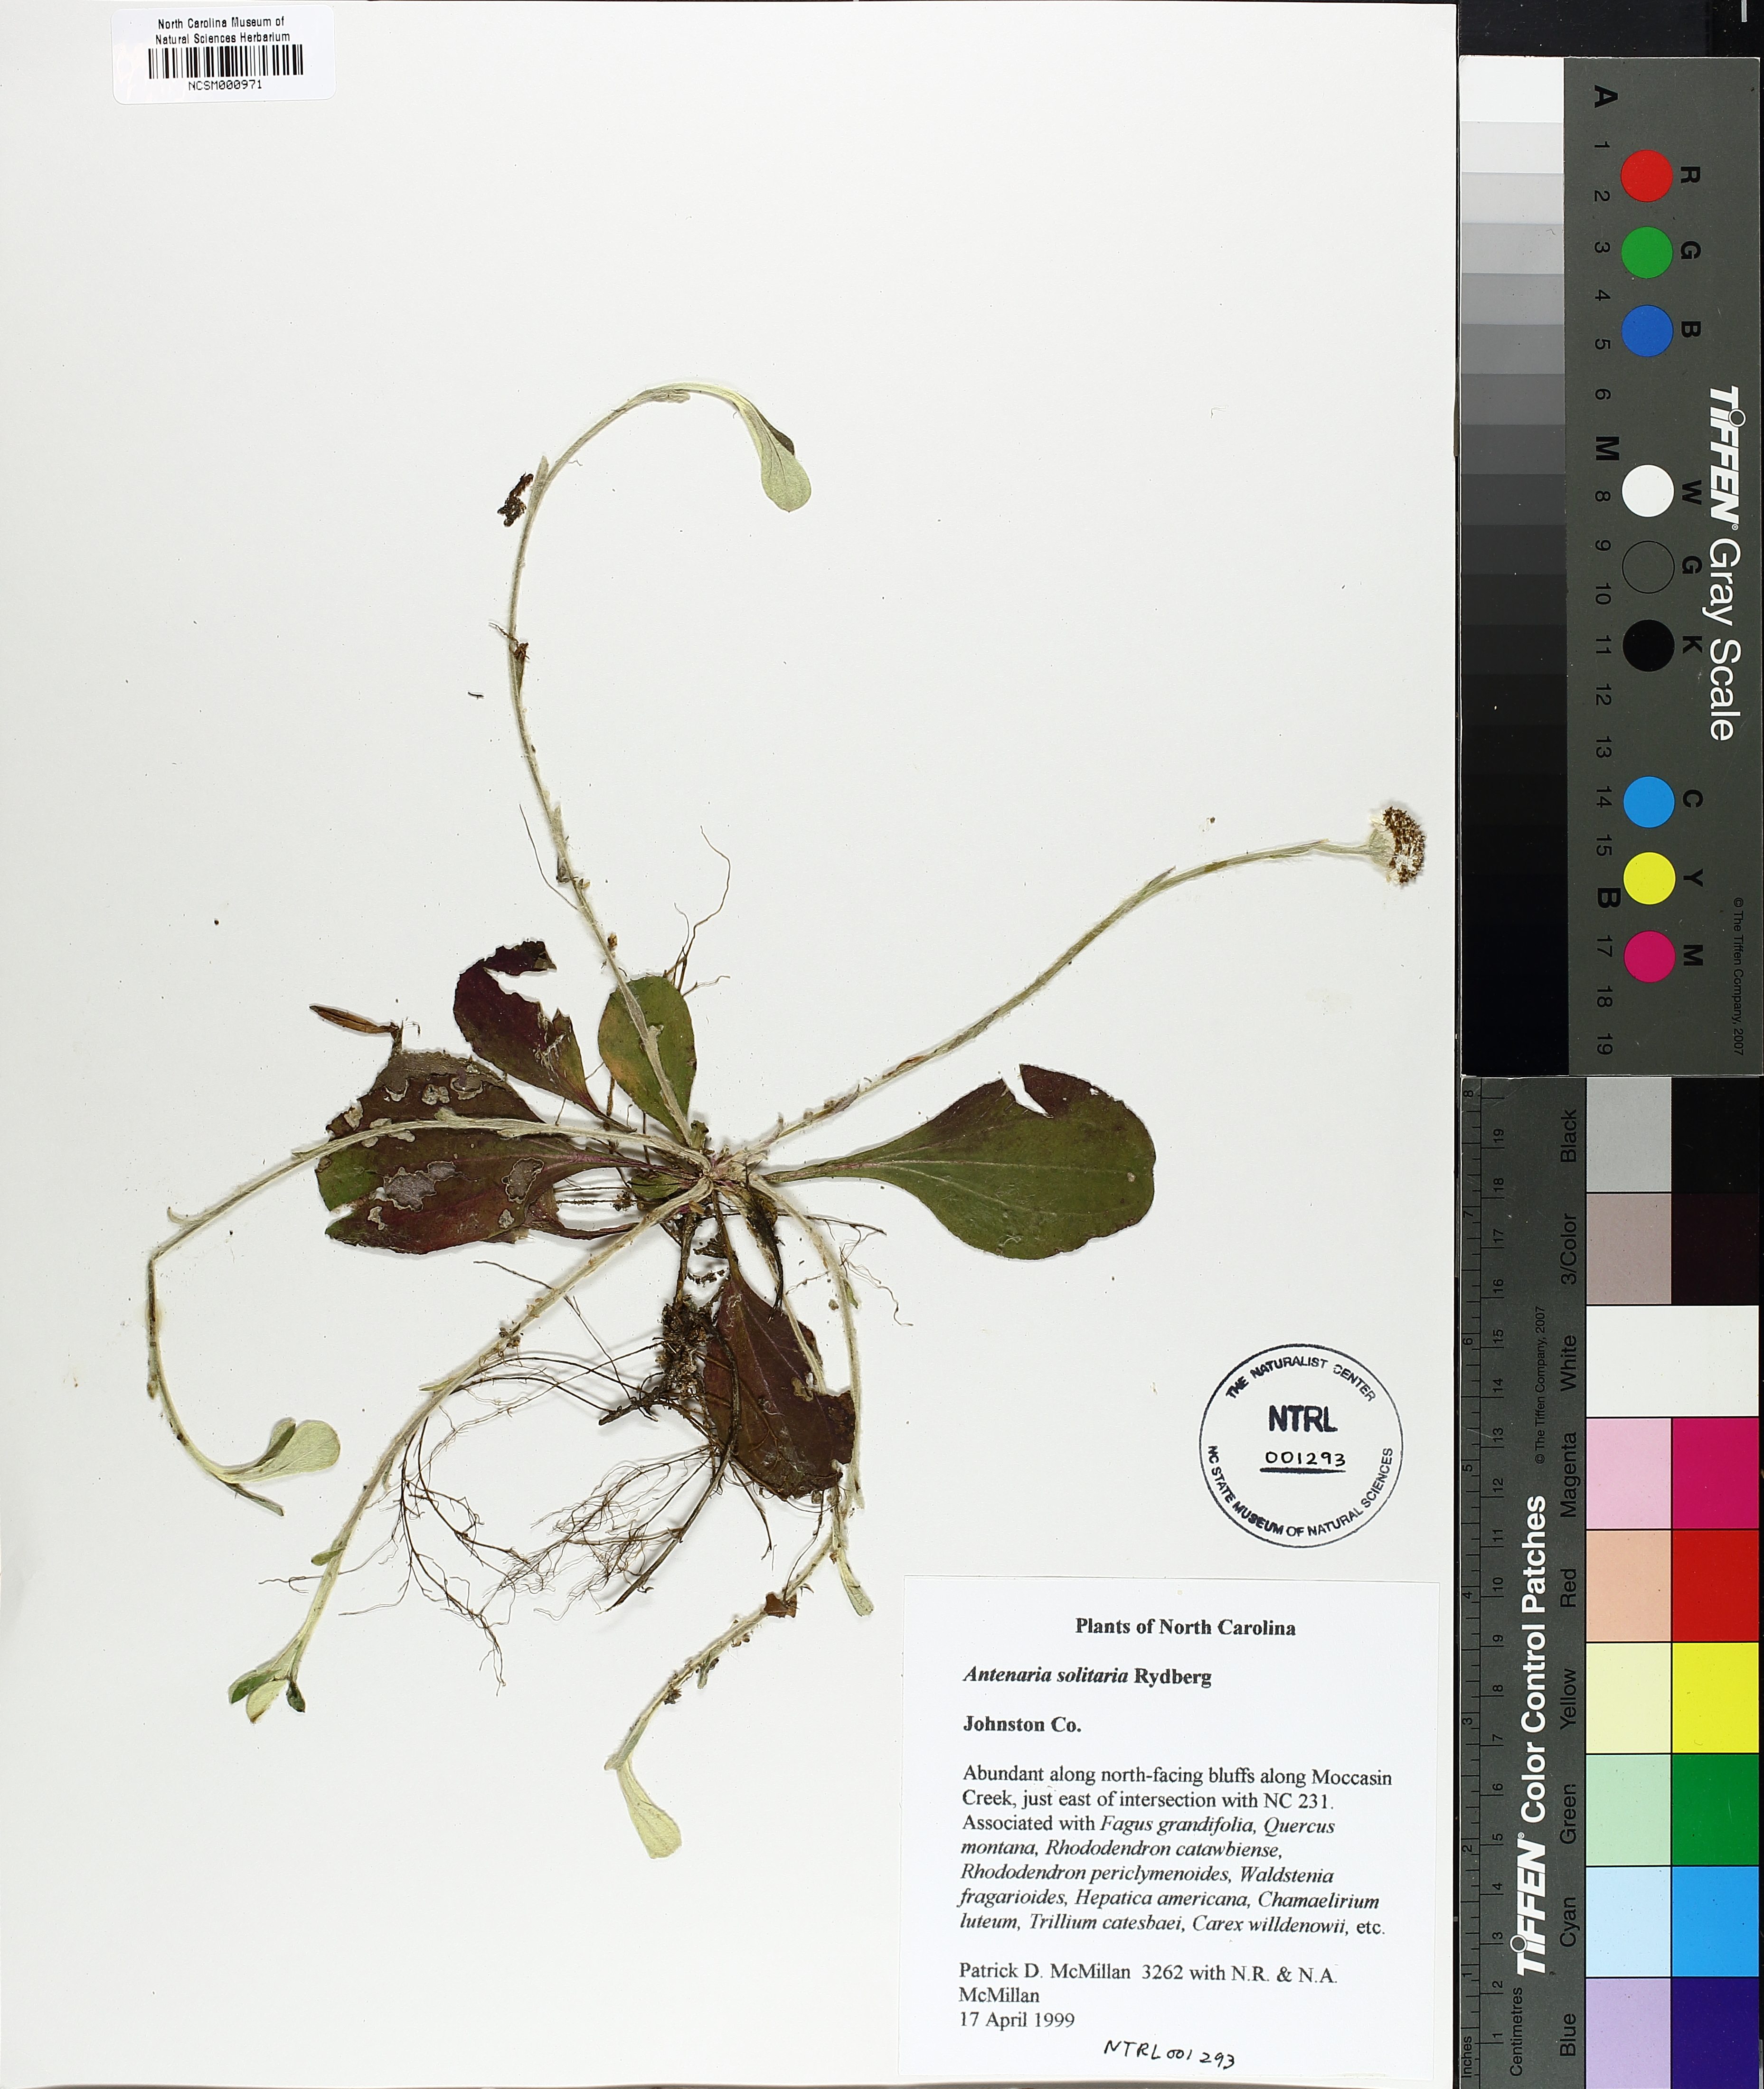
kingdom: Plantae
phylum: Tracheophyta
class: Magnoliopsida
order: Asterales
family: Asteraceae
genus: Antennaria
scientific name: Antennaria solitaria
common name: Single-head pussytoes
